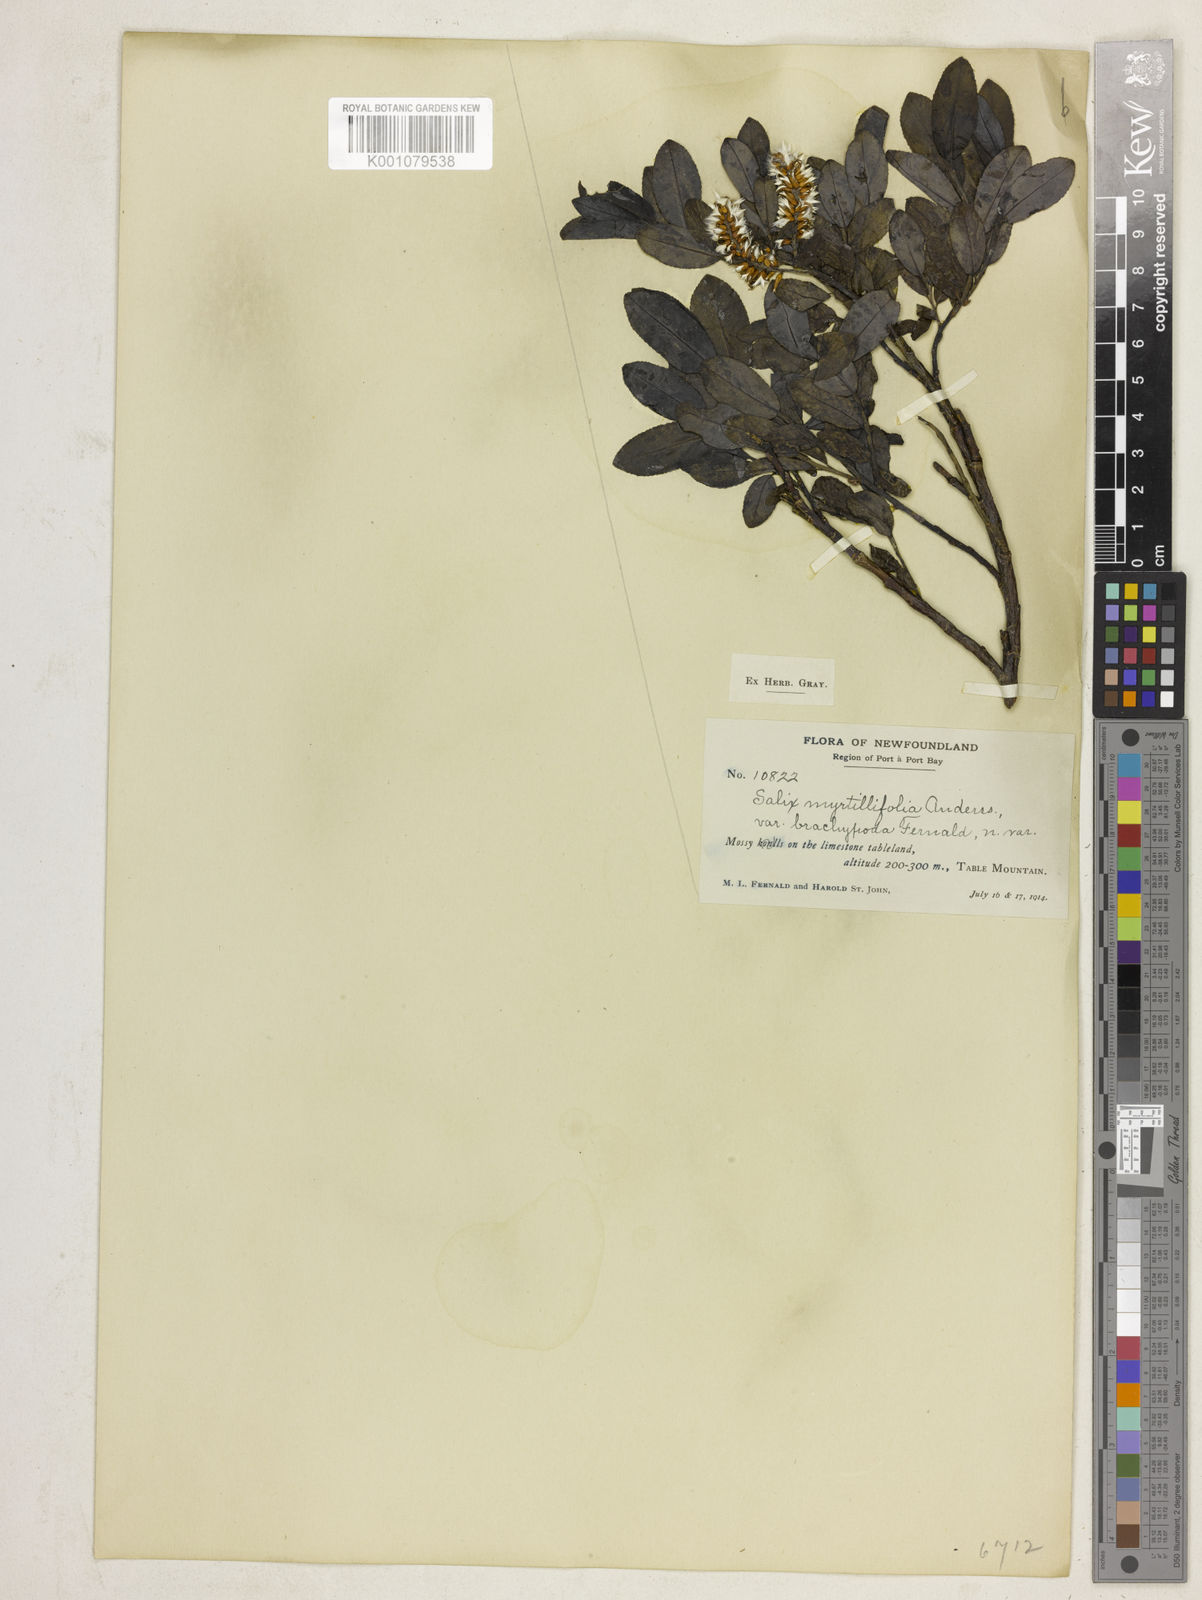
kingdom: Plantae
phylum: Tracheophyta
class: Magnoliopsida
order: Malpighiales
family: Salicaceae
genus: Salix
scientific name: Salix myrtillifolia
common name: Bilberry willow
